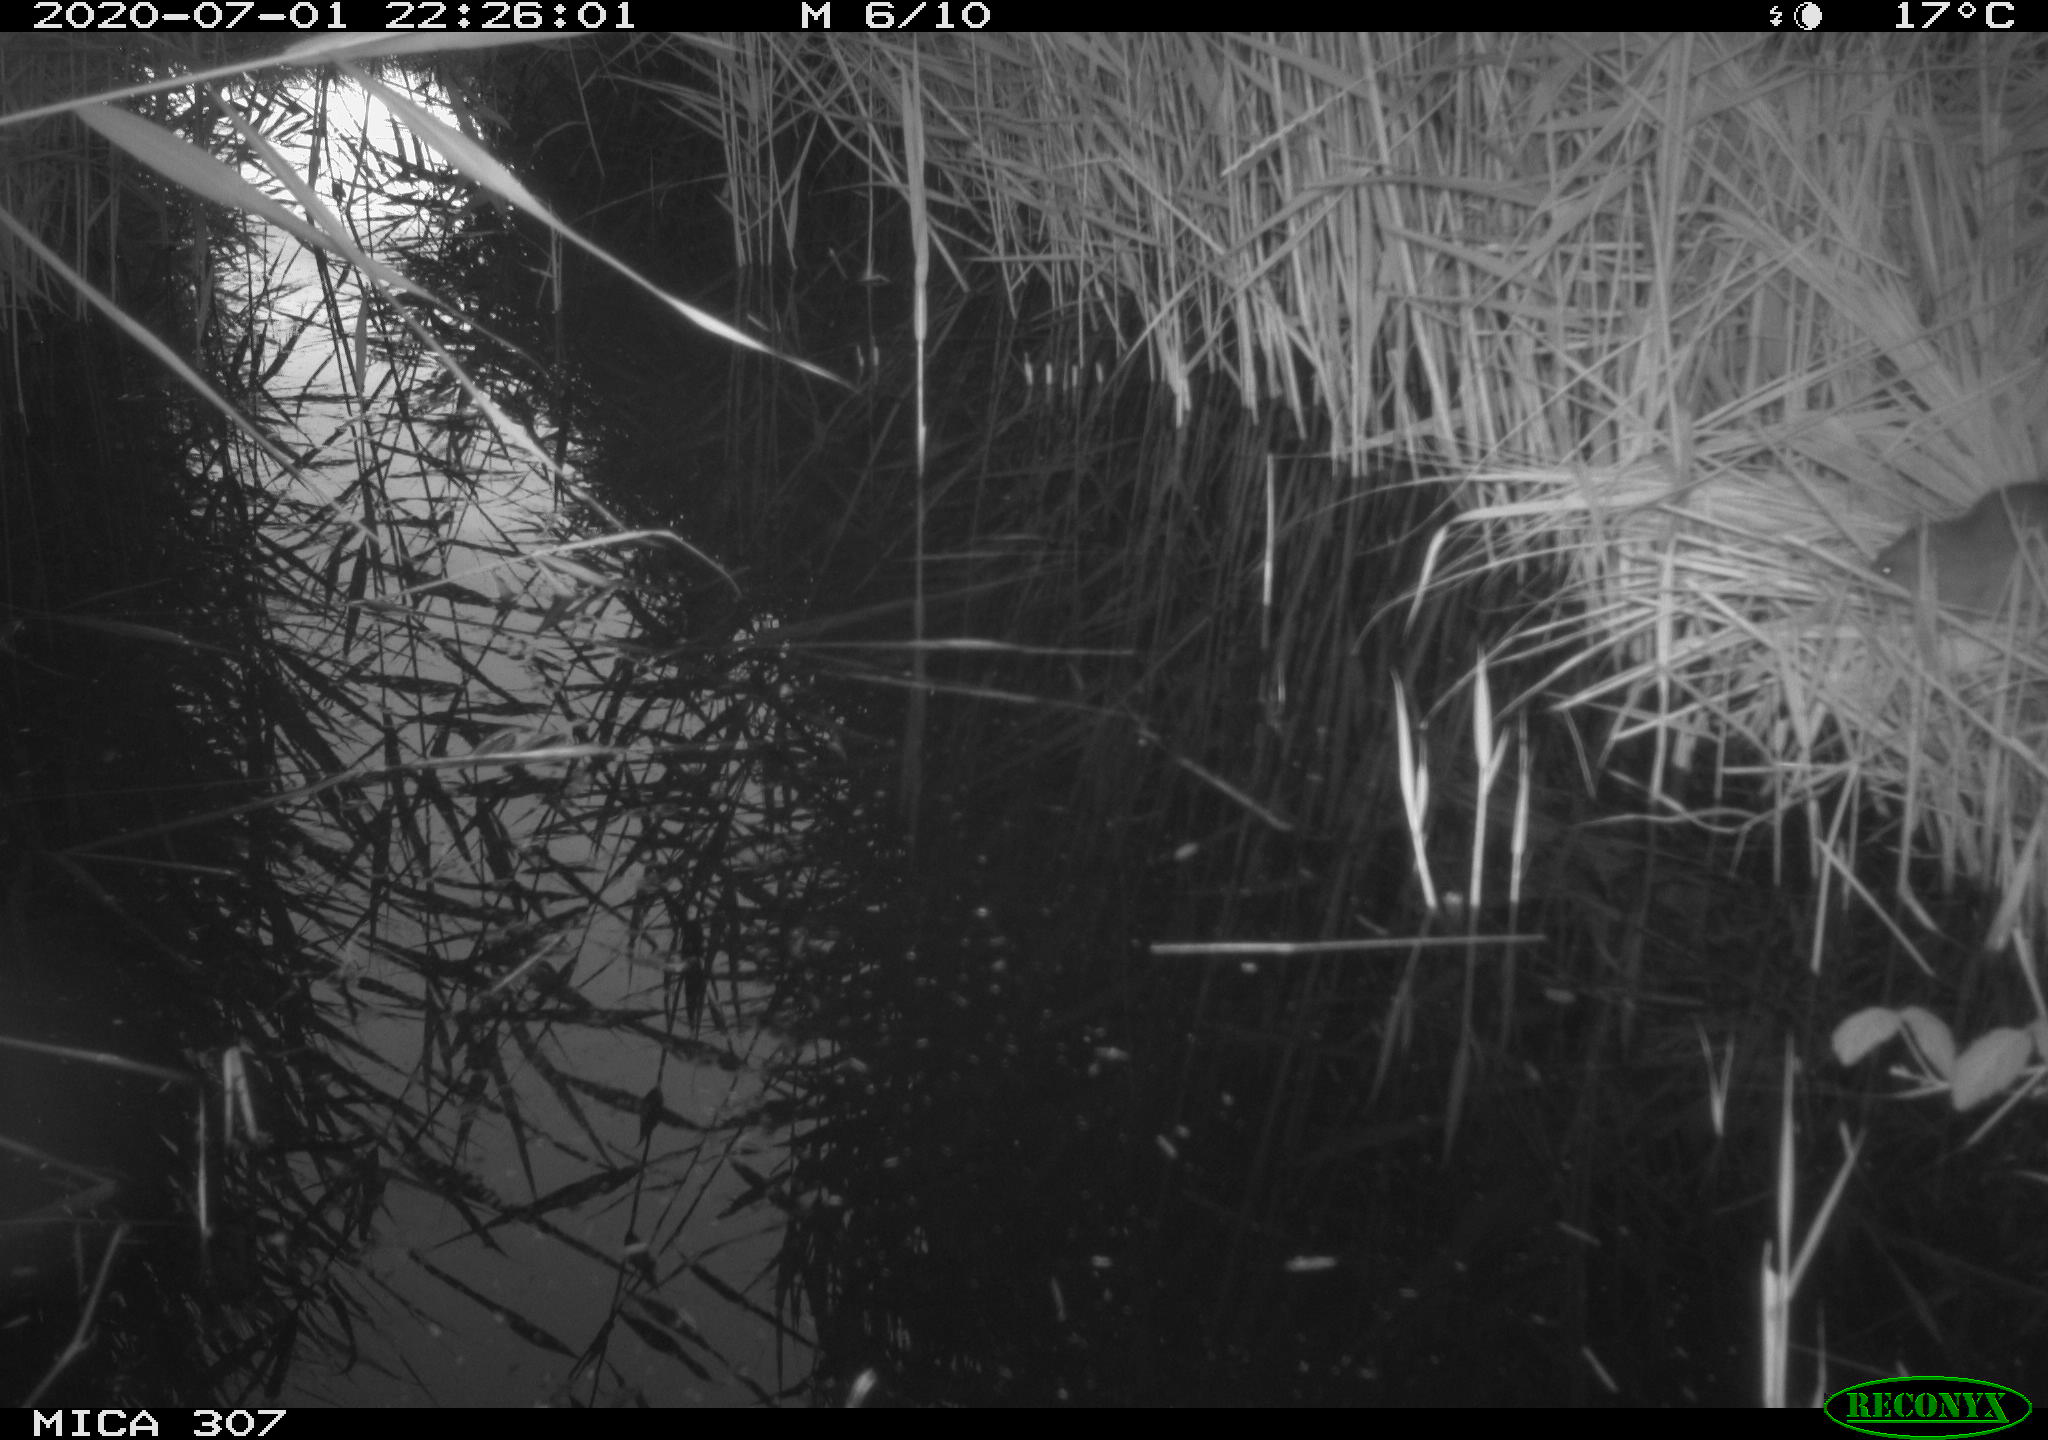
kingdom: Animalia
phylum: Chordata
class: Mammalia
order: Rodentia
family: Muridae
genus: Rattus
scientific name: Rattus norvegicus
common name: Brown rat
